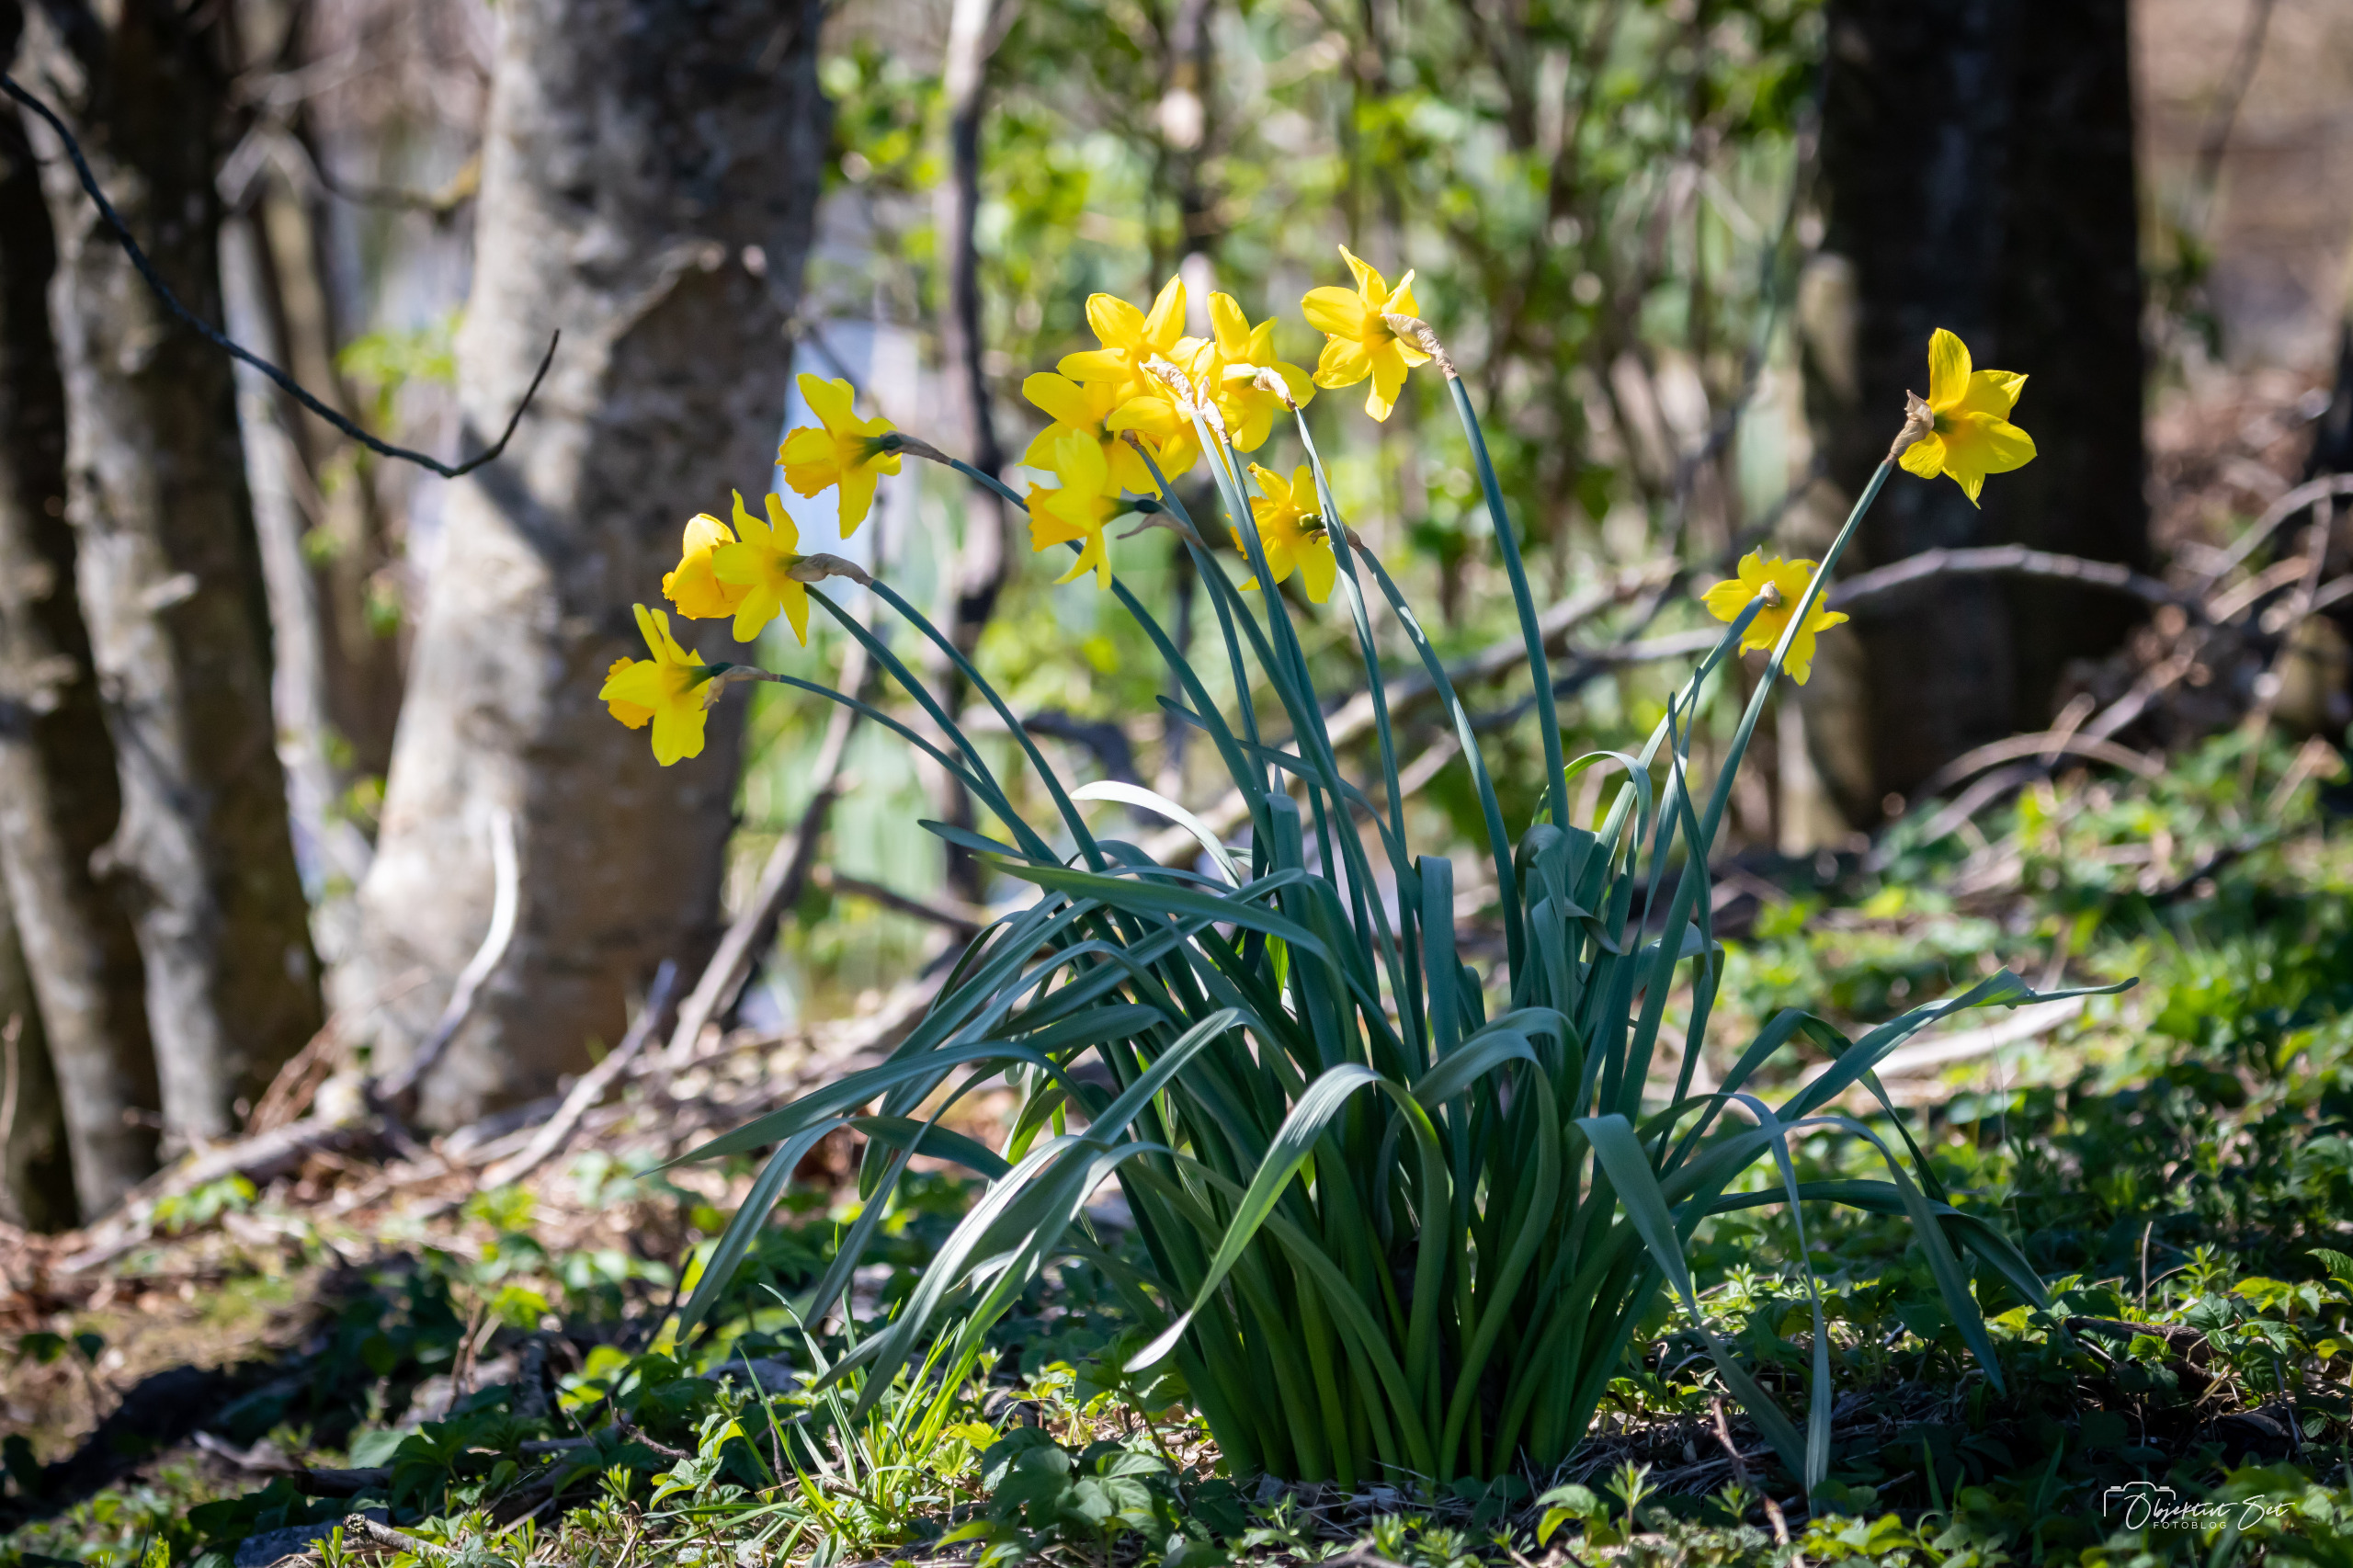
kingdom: Plantae
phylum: Tracheophyta
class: Liliopsida
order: Asparagales
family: Amaryllidaceae
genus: Narcissus
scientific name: Narcissus pseudonarcissus
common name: Påskelilje
